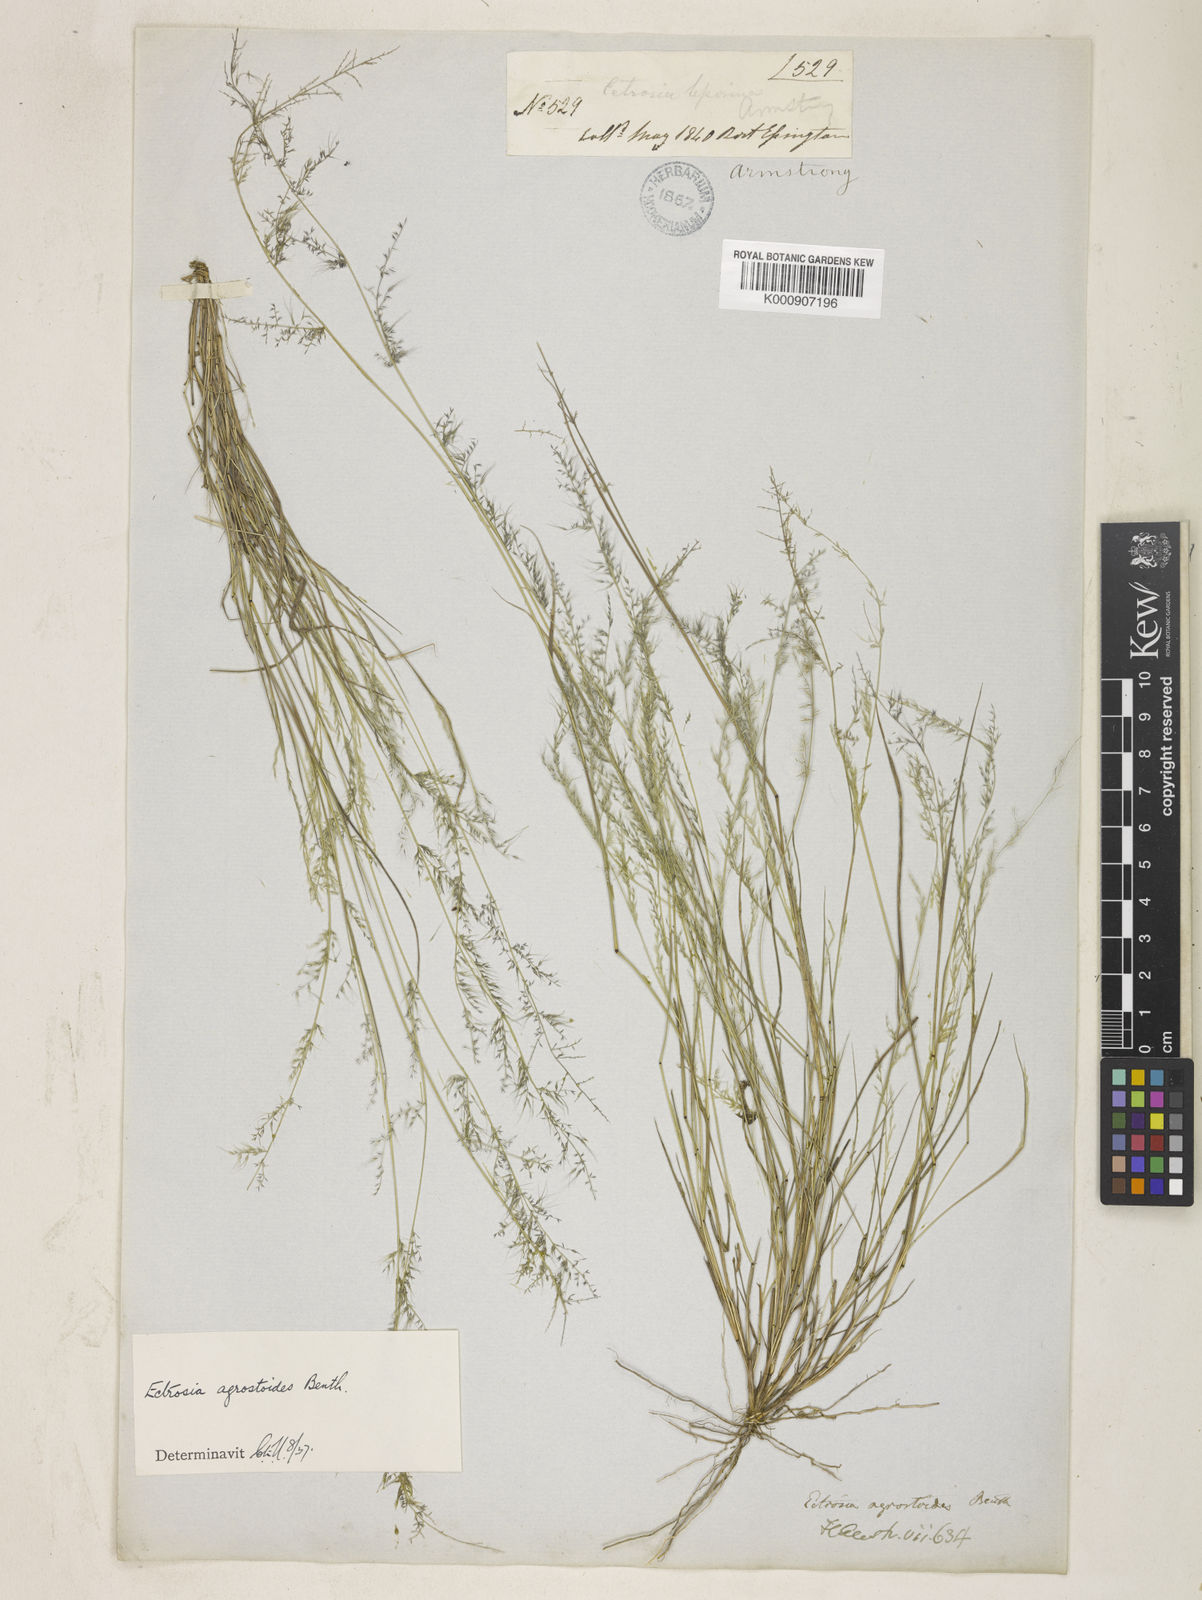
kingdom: Plantae
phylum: Tracheophyta
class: Liliopsida
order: Poales
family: Poaceae
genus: Eragrostis
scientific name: Eragrostis agrostoides
